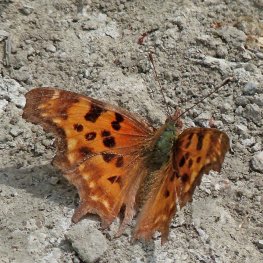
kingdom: Animalia
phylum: Arthropoda
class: Insecta
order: Lepidoptera
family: Nymphalidae
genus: Polygonia
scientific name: Polygonia satyrus
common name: Satyr Comma
